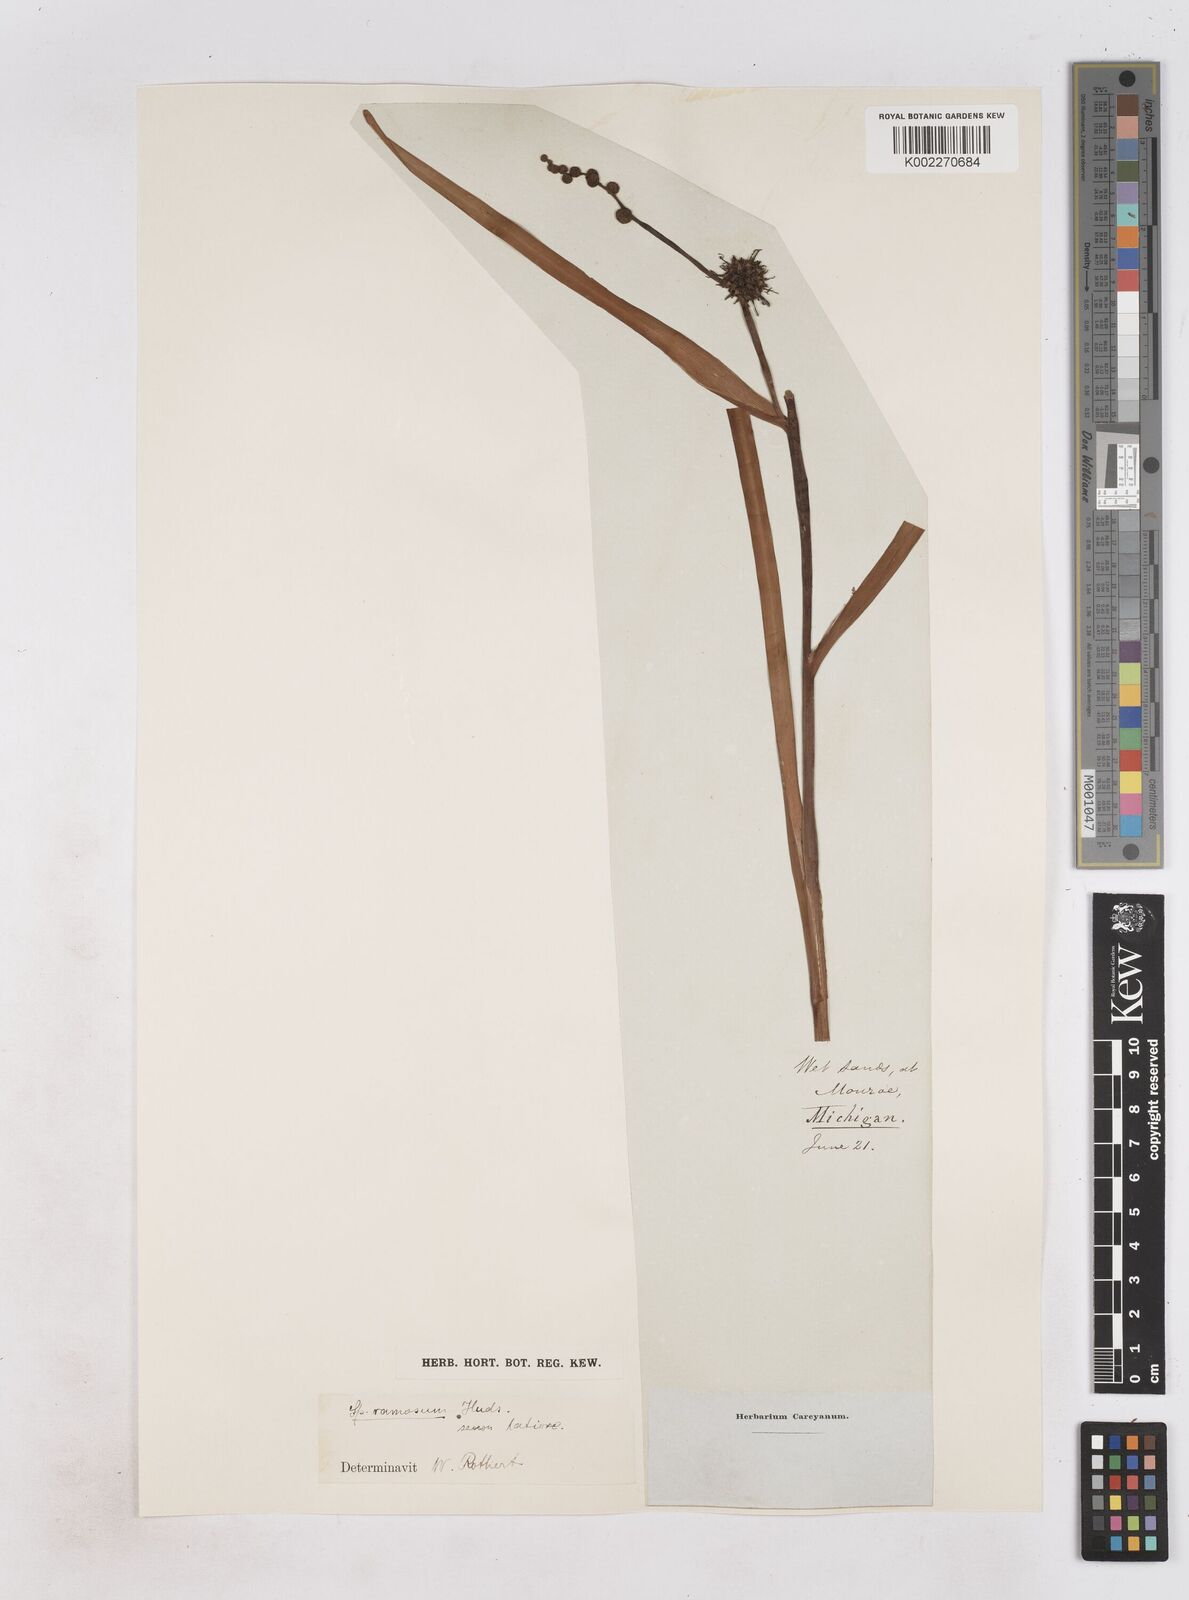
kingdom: Plantae
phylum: Tracheophyta
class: Liliopsida
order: Poales
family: Typhaceae
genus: Sparganium
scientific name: Sparganium erectum
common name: Branched bur-reed
